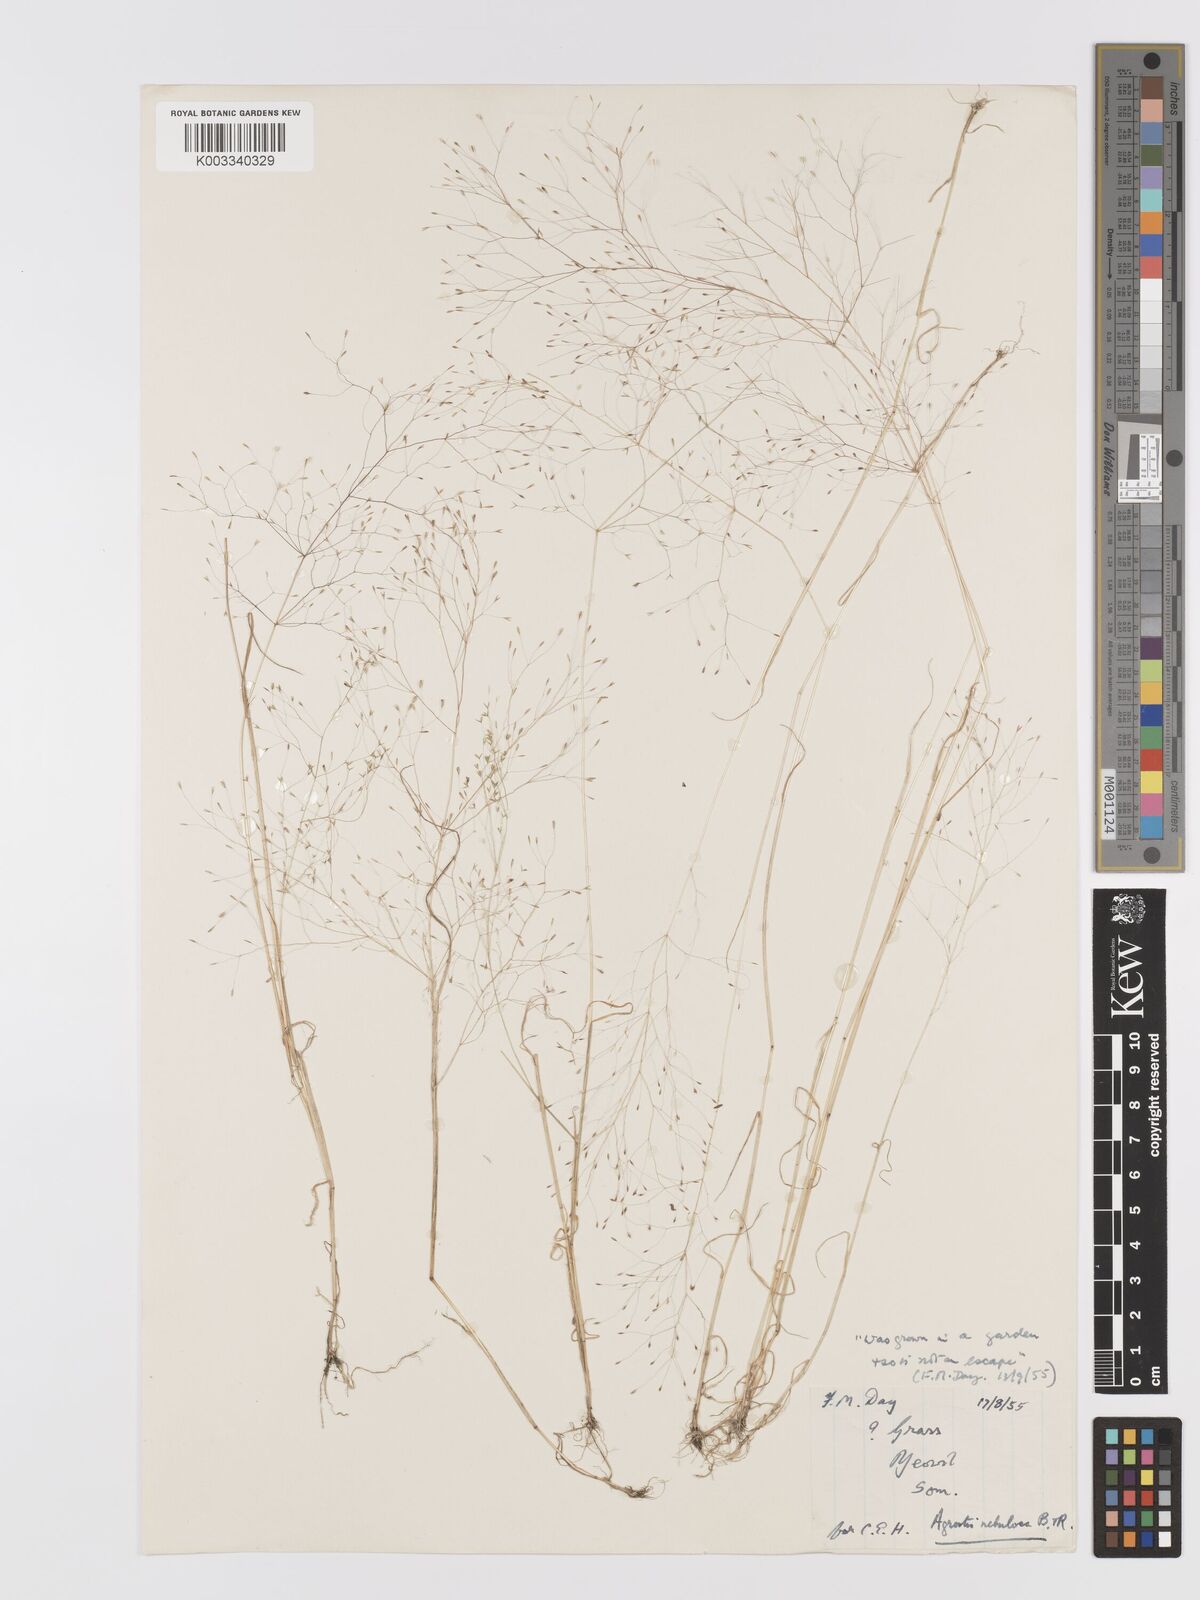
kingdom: Plantae
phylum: Tracheophyta
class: Liliopsida
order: Poales
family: Poaceae
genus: Agrostis
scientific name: Agrostis nebulosa
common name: Cloud grass
